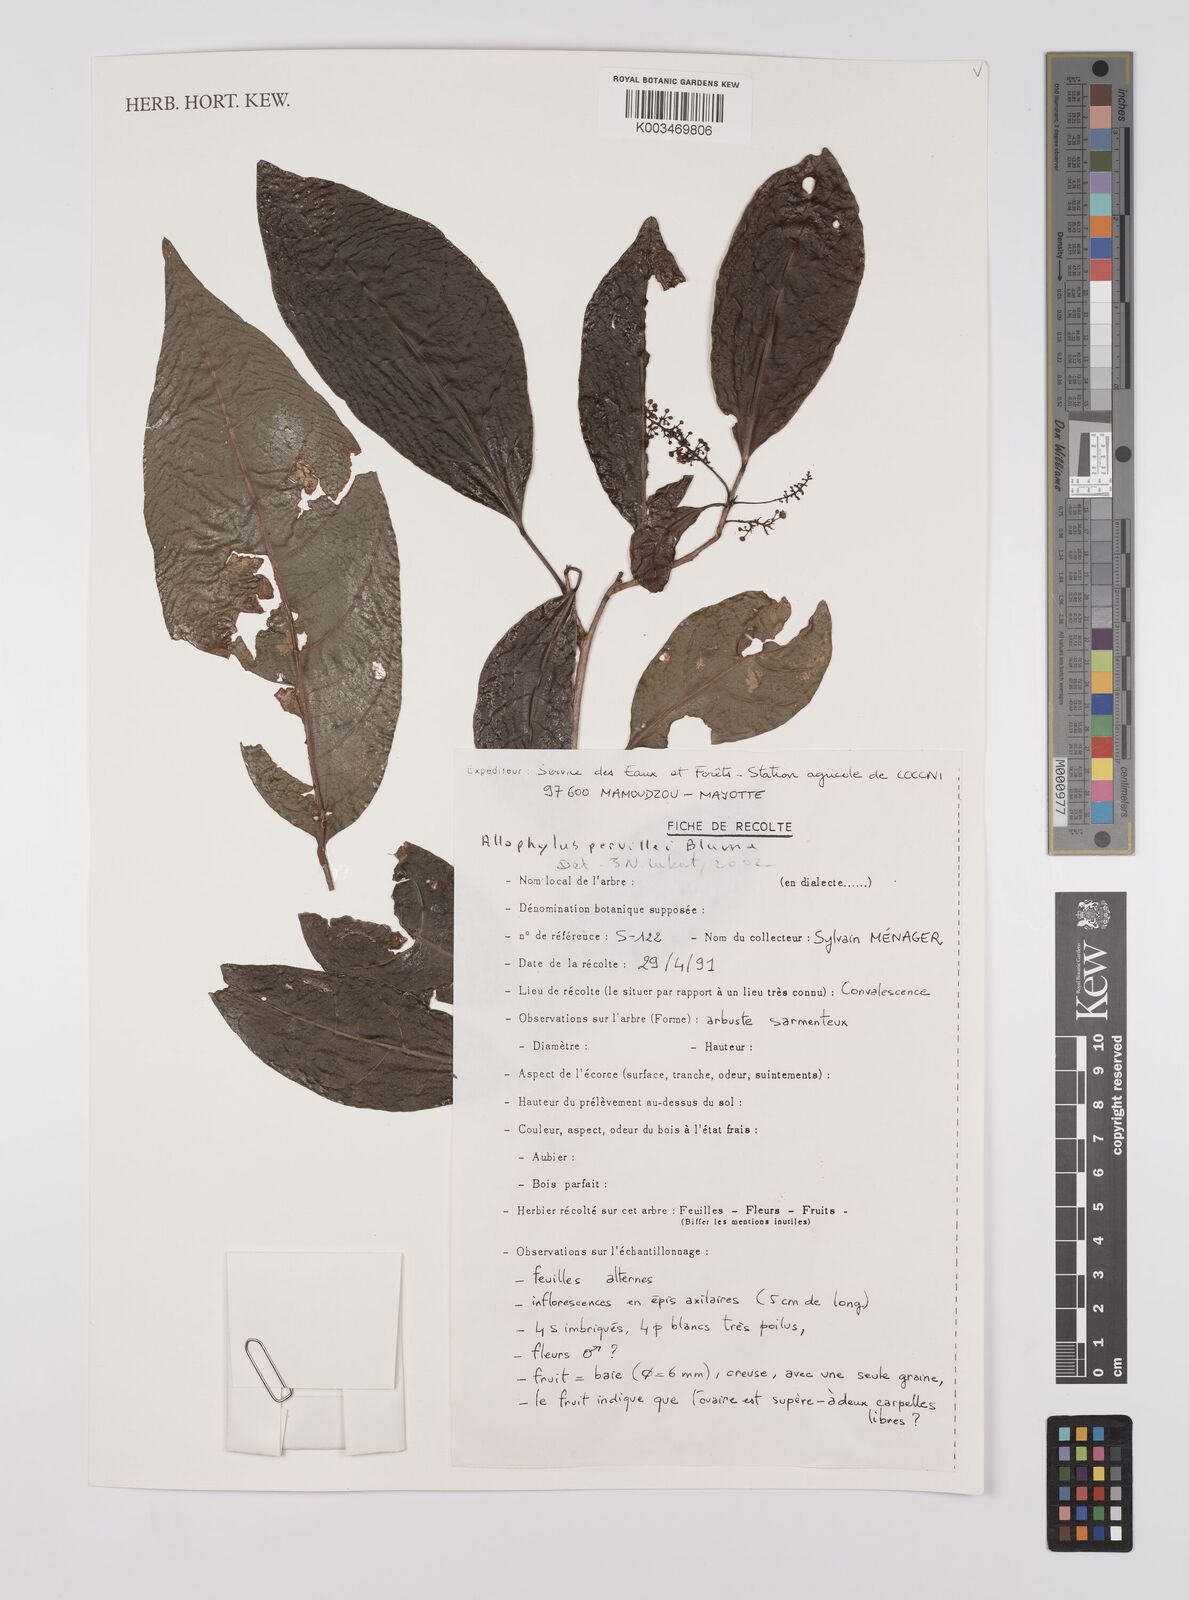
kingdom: Plantae
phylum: Tracheophyta
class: Magnoliopsida
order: Sapindales
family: Sapindaceae
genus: Allophylus
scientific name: Allophylus pervillei
